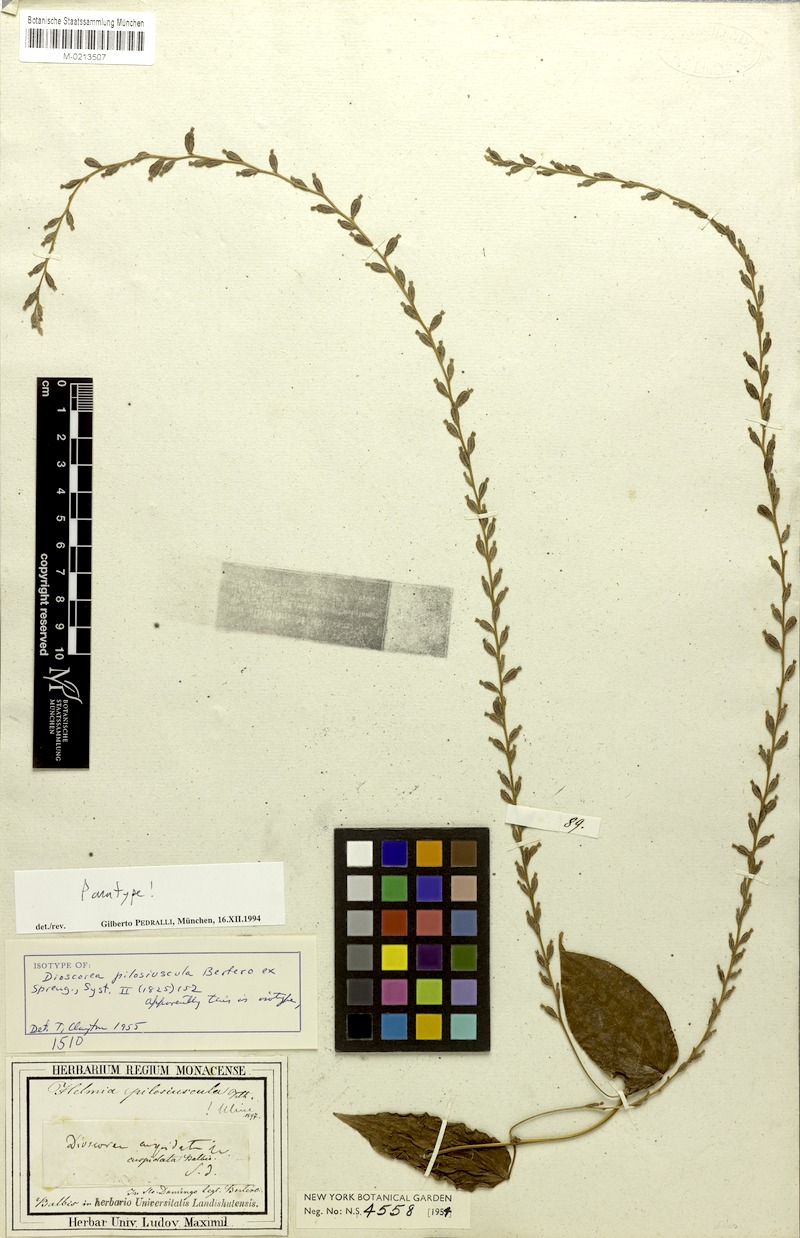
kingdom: Plantae
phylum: Tracheophyta
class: Liliopsida
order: Dioscoreales
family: Dioscoreaceae
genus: Dioscorea
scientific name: Dioscorea pilosiuscula
